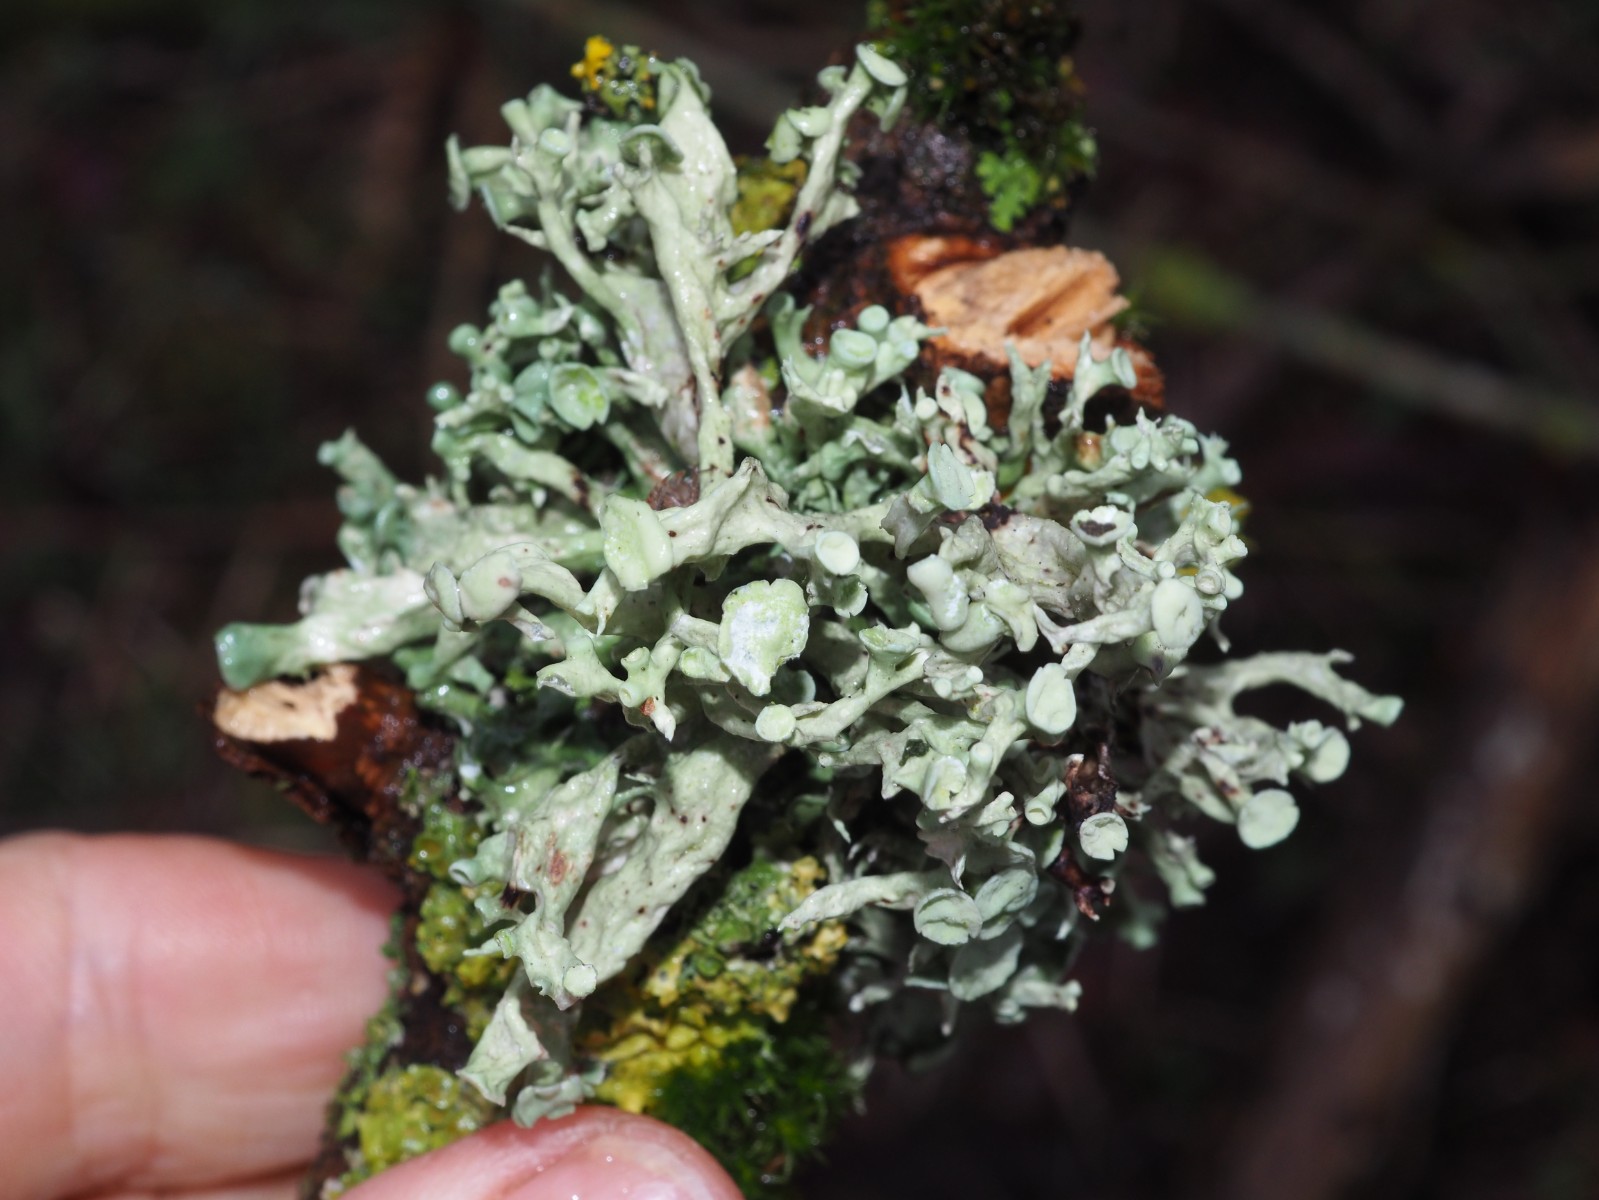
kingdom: Fungi
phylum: Ascomycota
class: Lecanoromycetes
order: Lecanorales
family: Ramalinaceae
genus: Ramalina
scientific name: Ramalina fastigiata
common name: tue-grenlav
